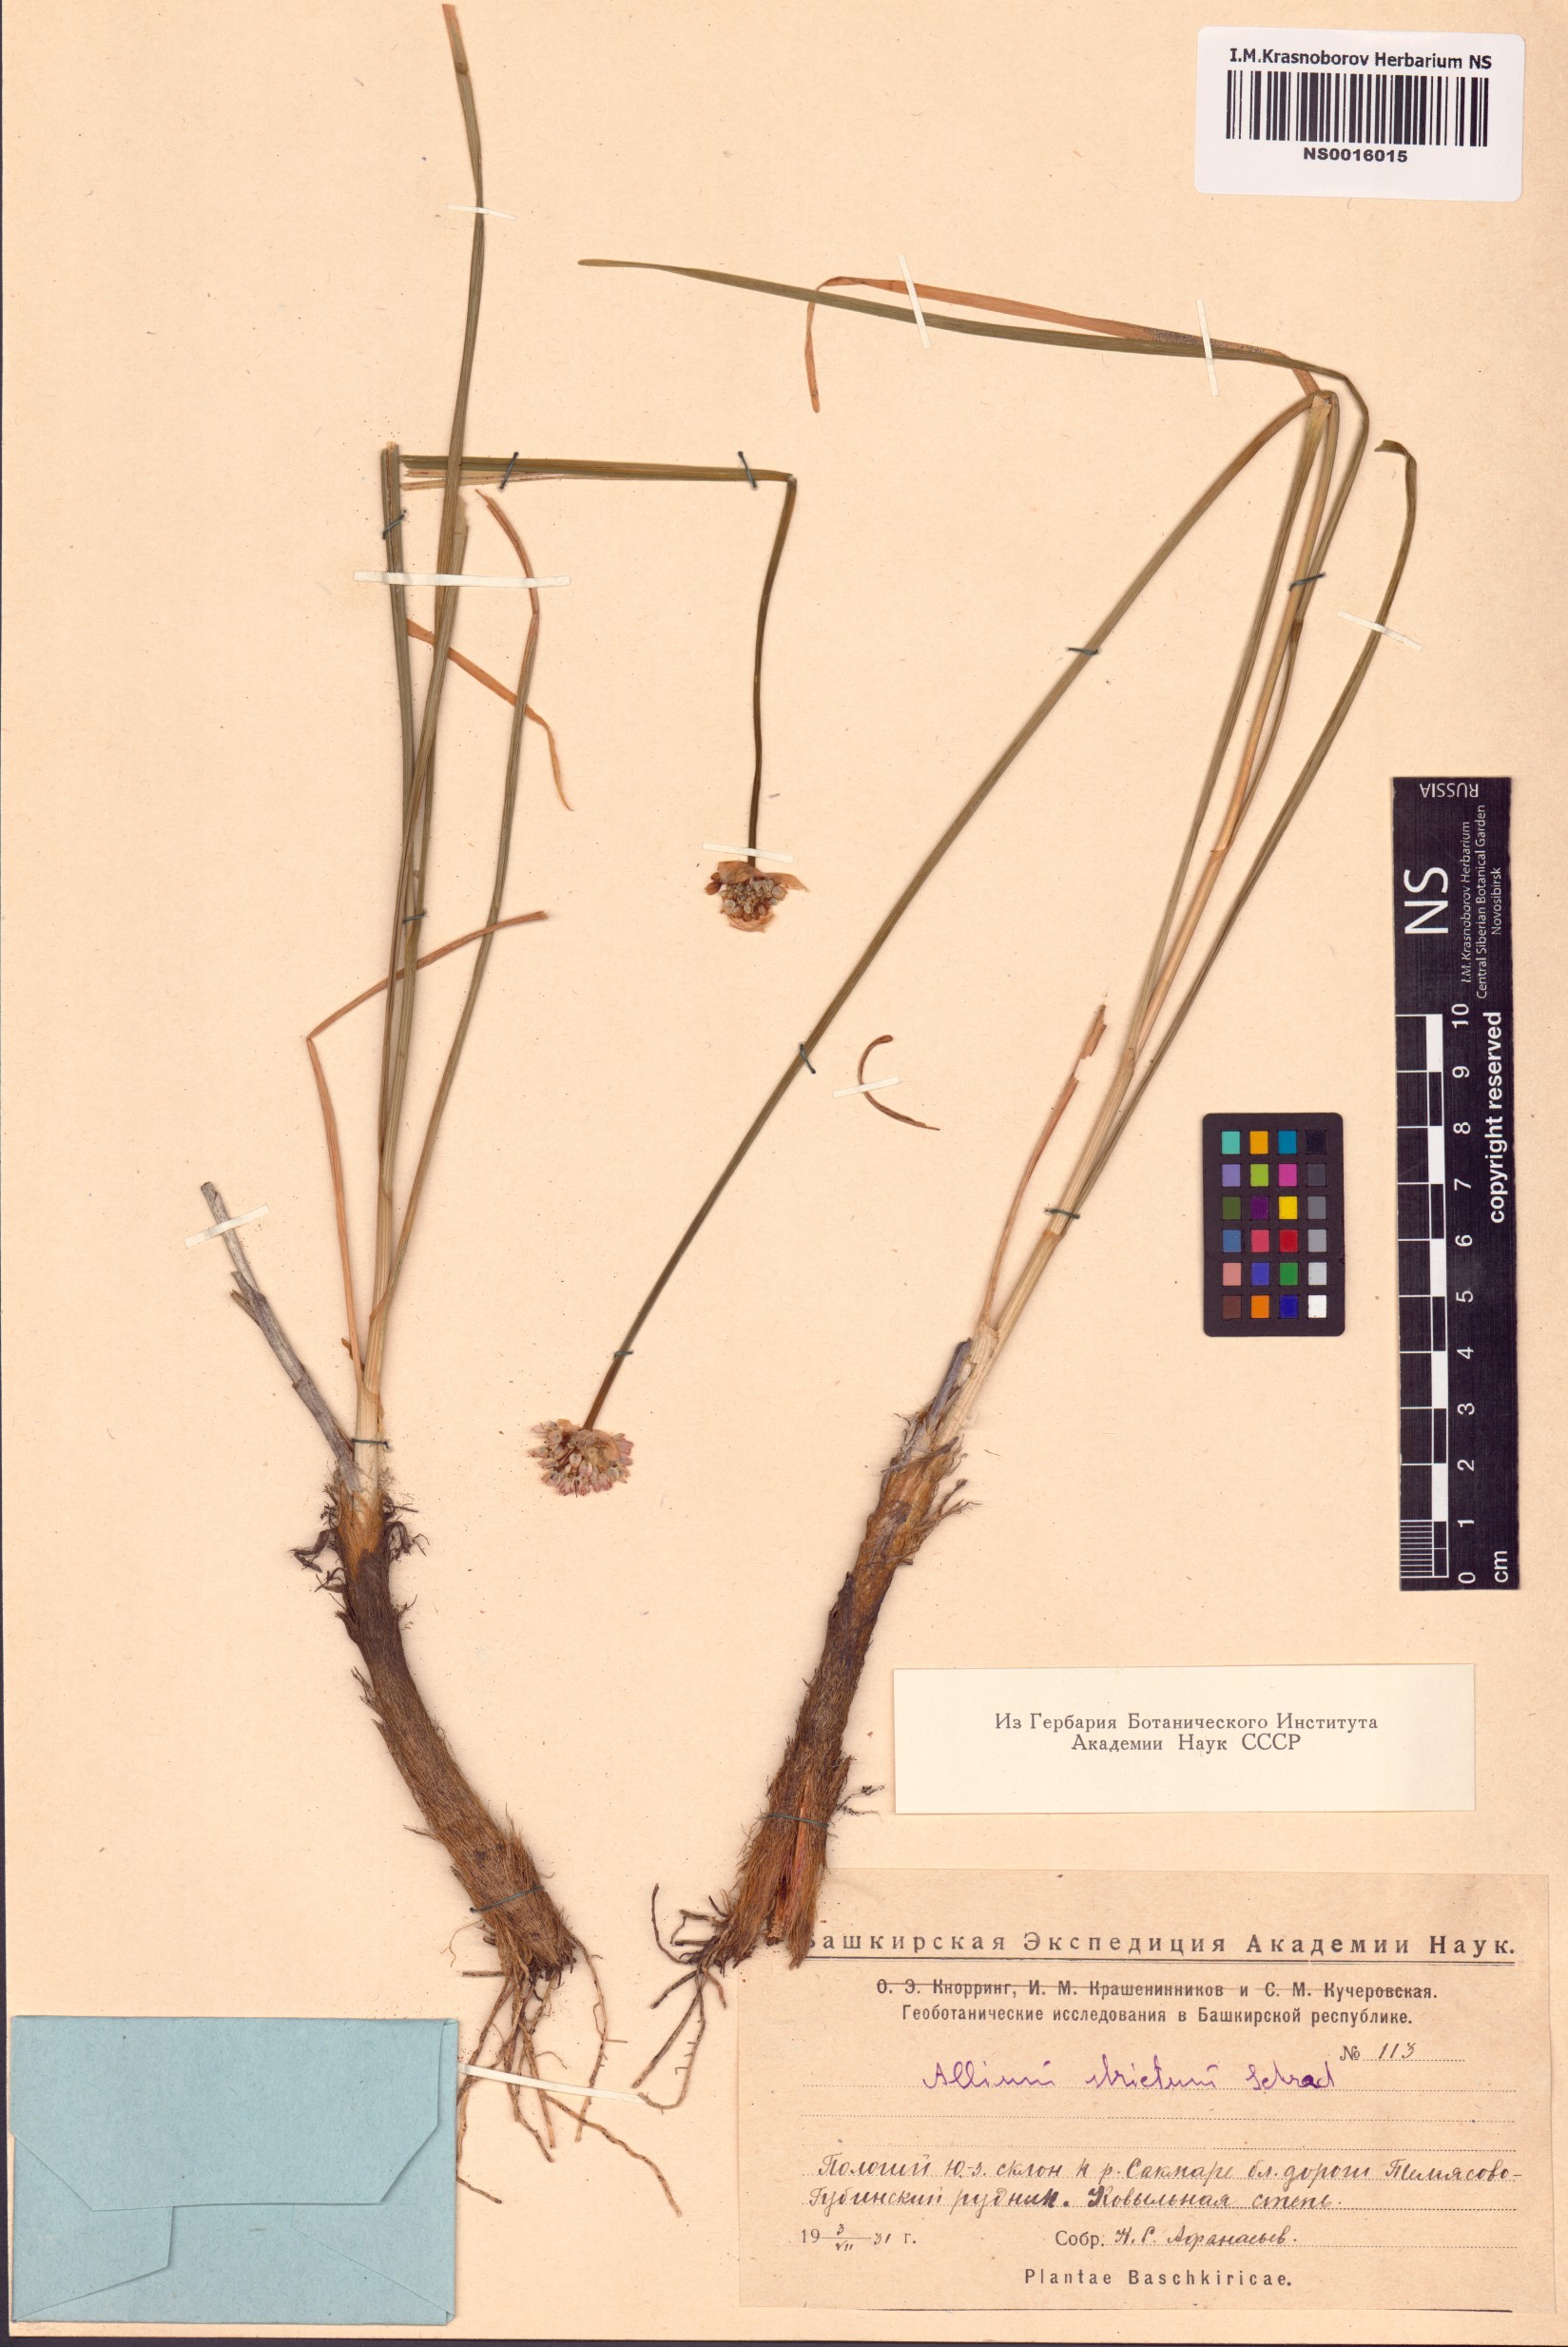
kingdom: Plantae
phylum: Tracheophyta
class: Liliopsida
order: Asparagales
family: Amaryllidaceae
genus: Allium
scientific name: Allium strictum
